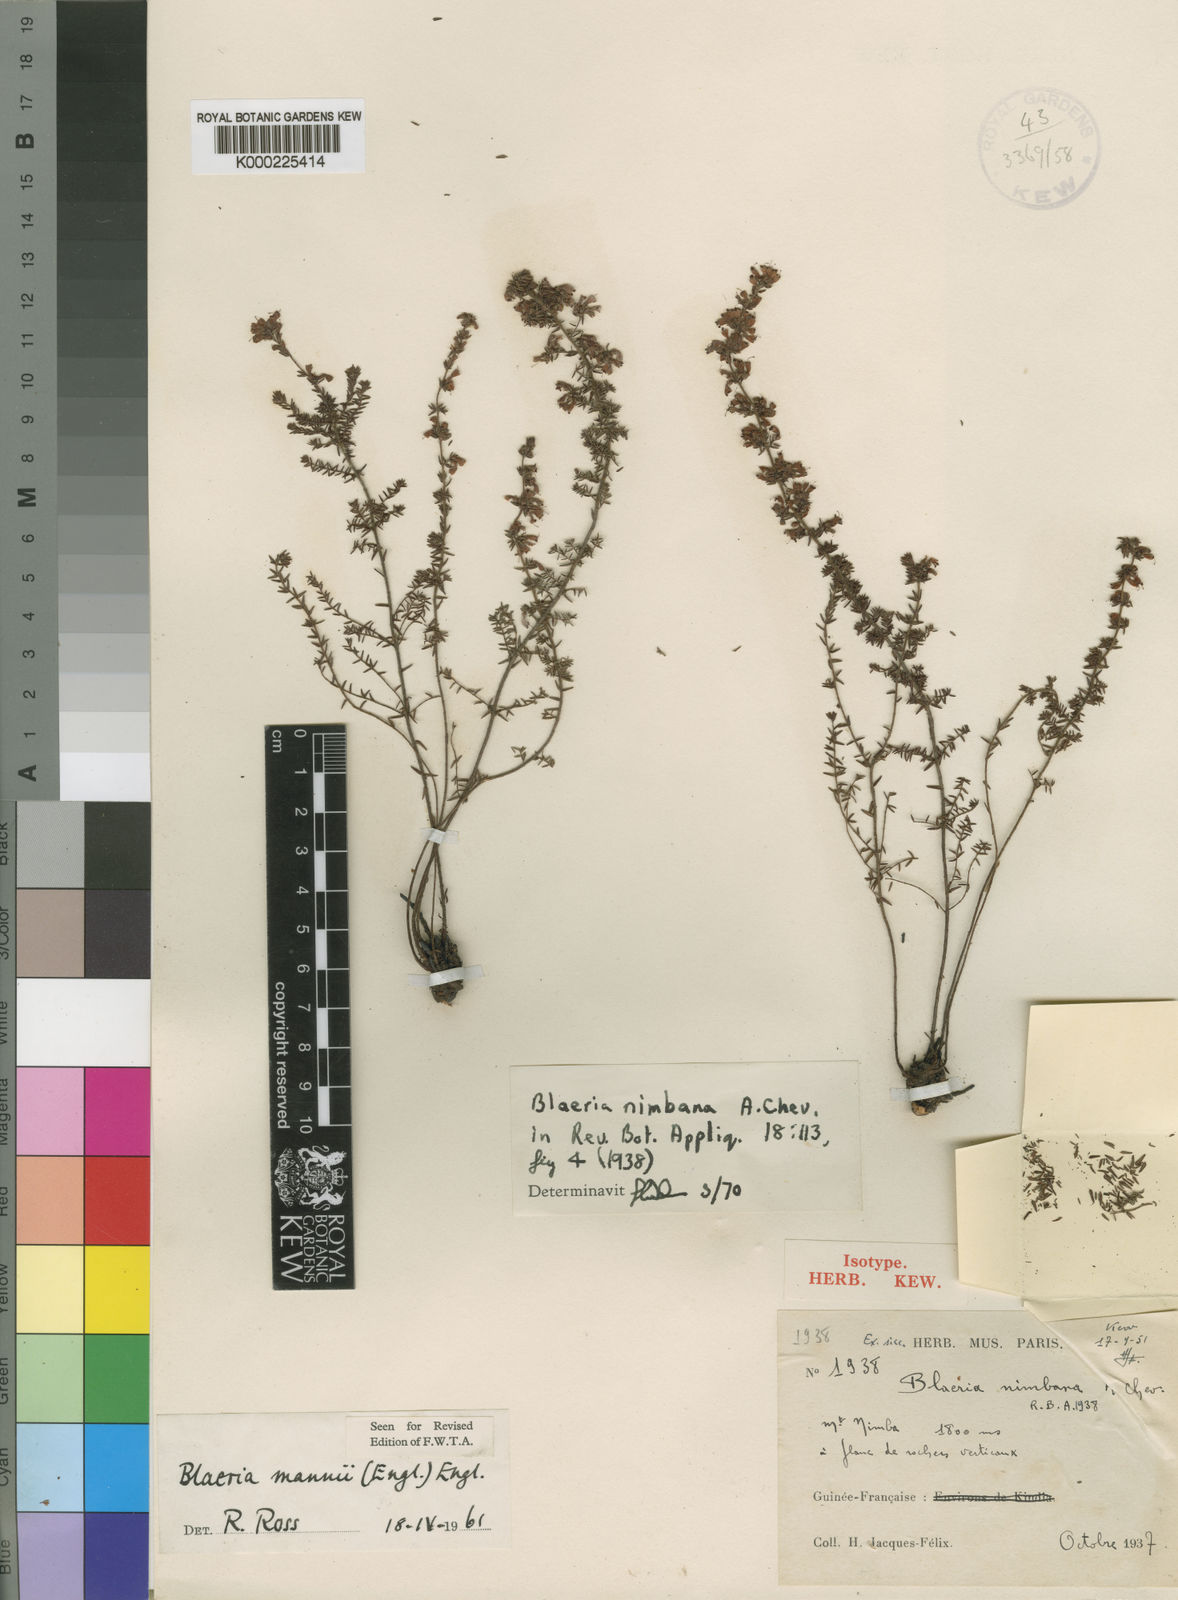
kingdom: Plantae
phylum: Tracheophyta
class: Magnoliopsida
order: Ericales
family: Ericaceae
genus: Erica
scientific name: Erica silvatica
